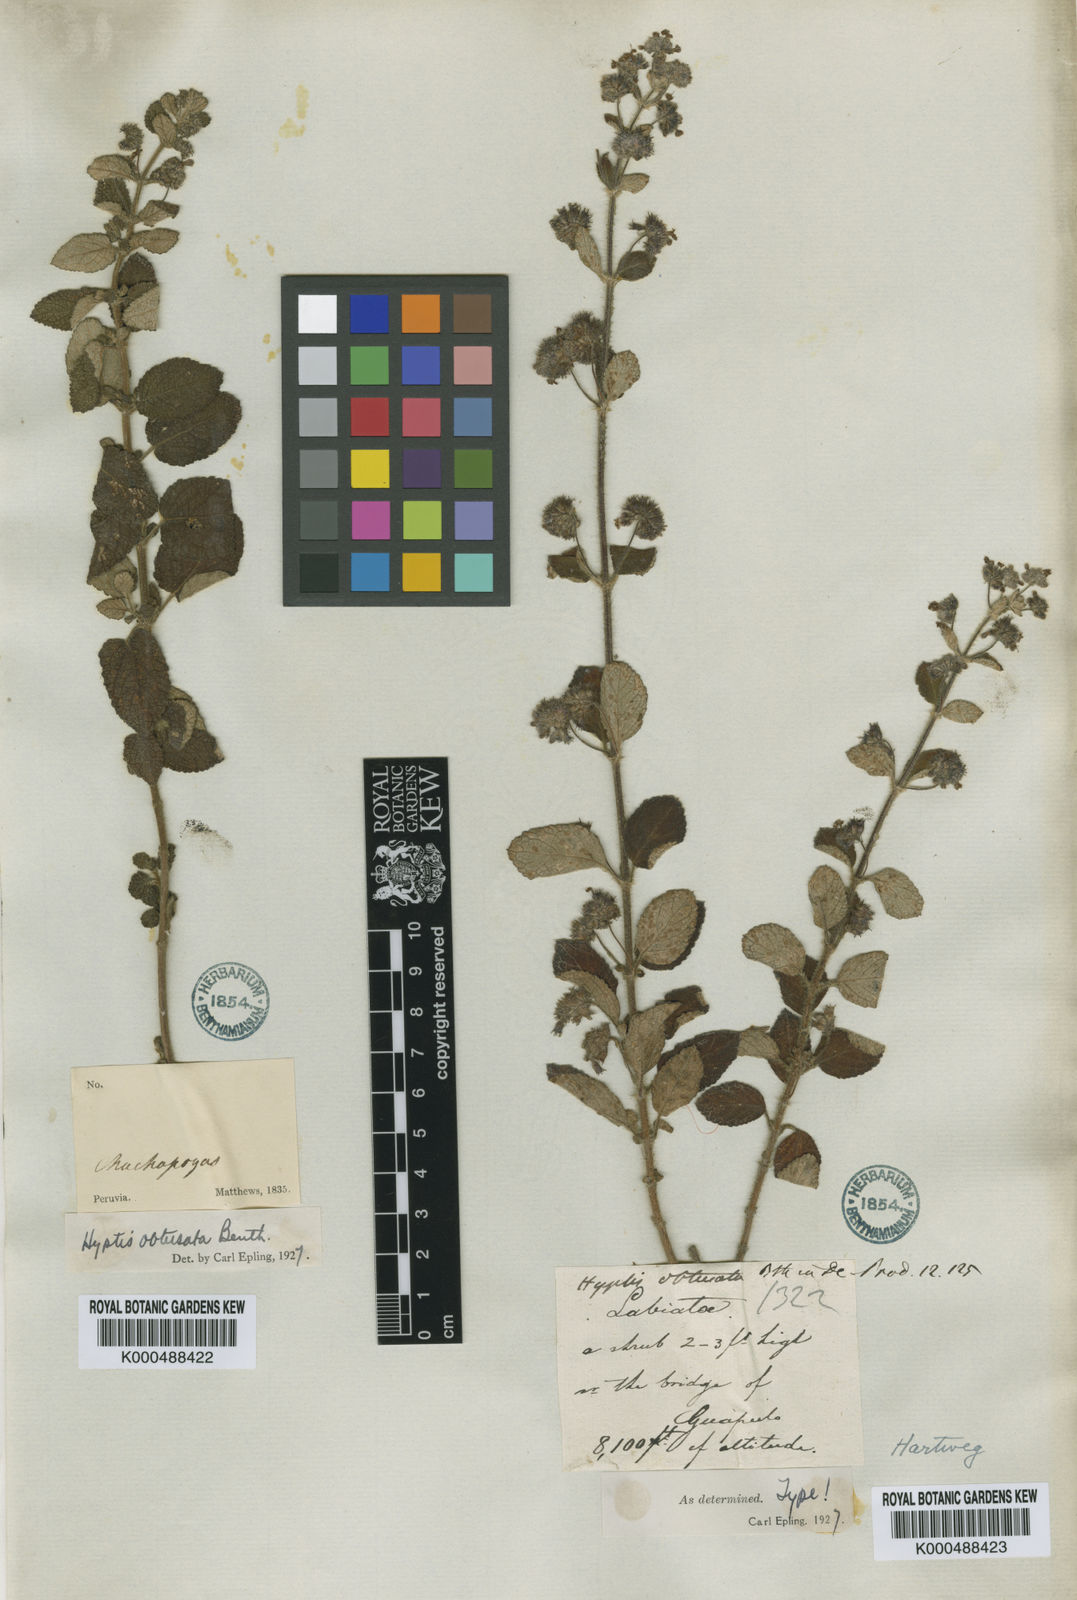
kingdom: Plantae
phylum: Tracheophyta
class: Magnoliopsida
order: Lamiales
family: Lamiaceae
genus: Mesosphaerum
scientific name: Mesosphaerum obtusatum
